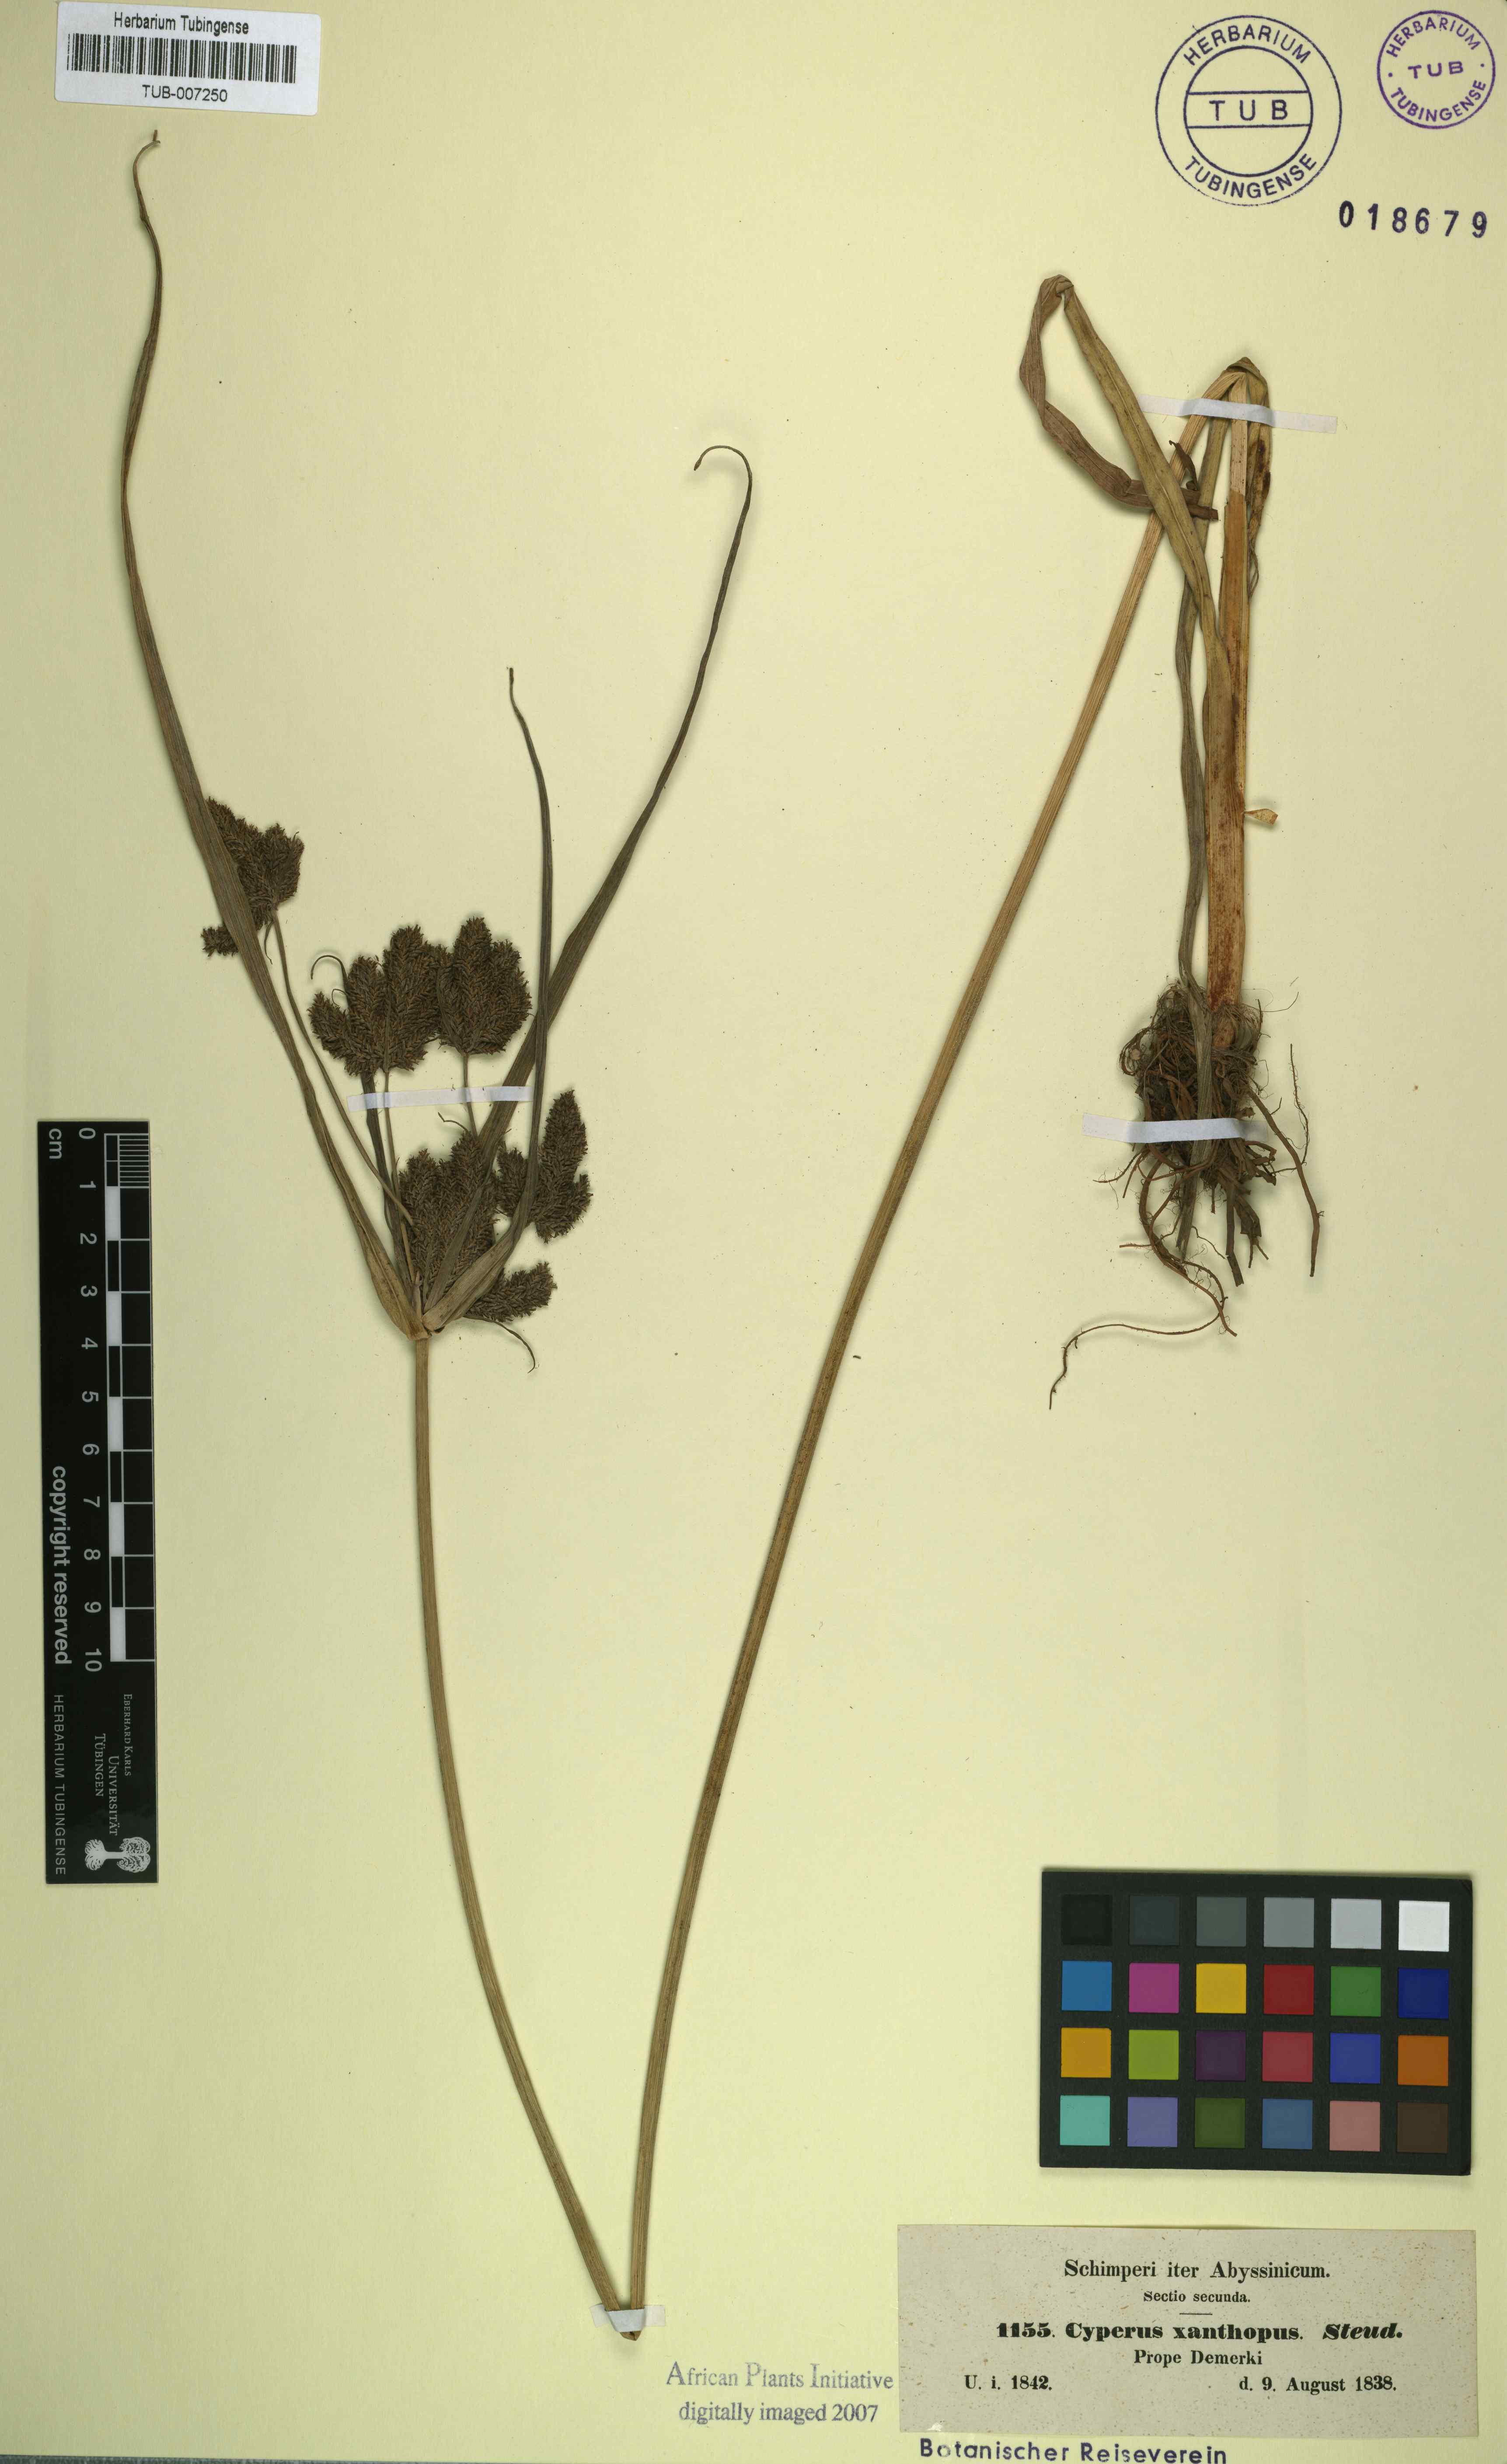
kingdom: Plantae
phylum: Tracheophyta
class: Liliopsida
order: Poales
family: Cyperaceae
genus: Cyperus
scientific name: Cyperus nutans
